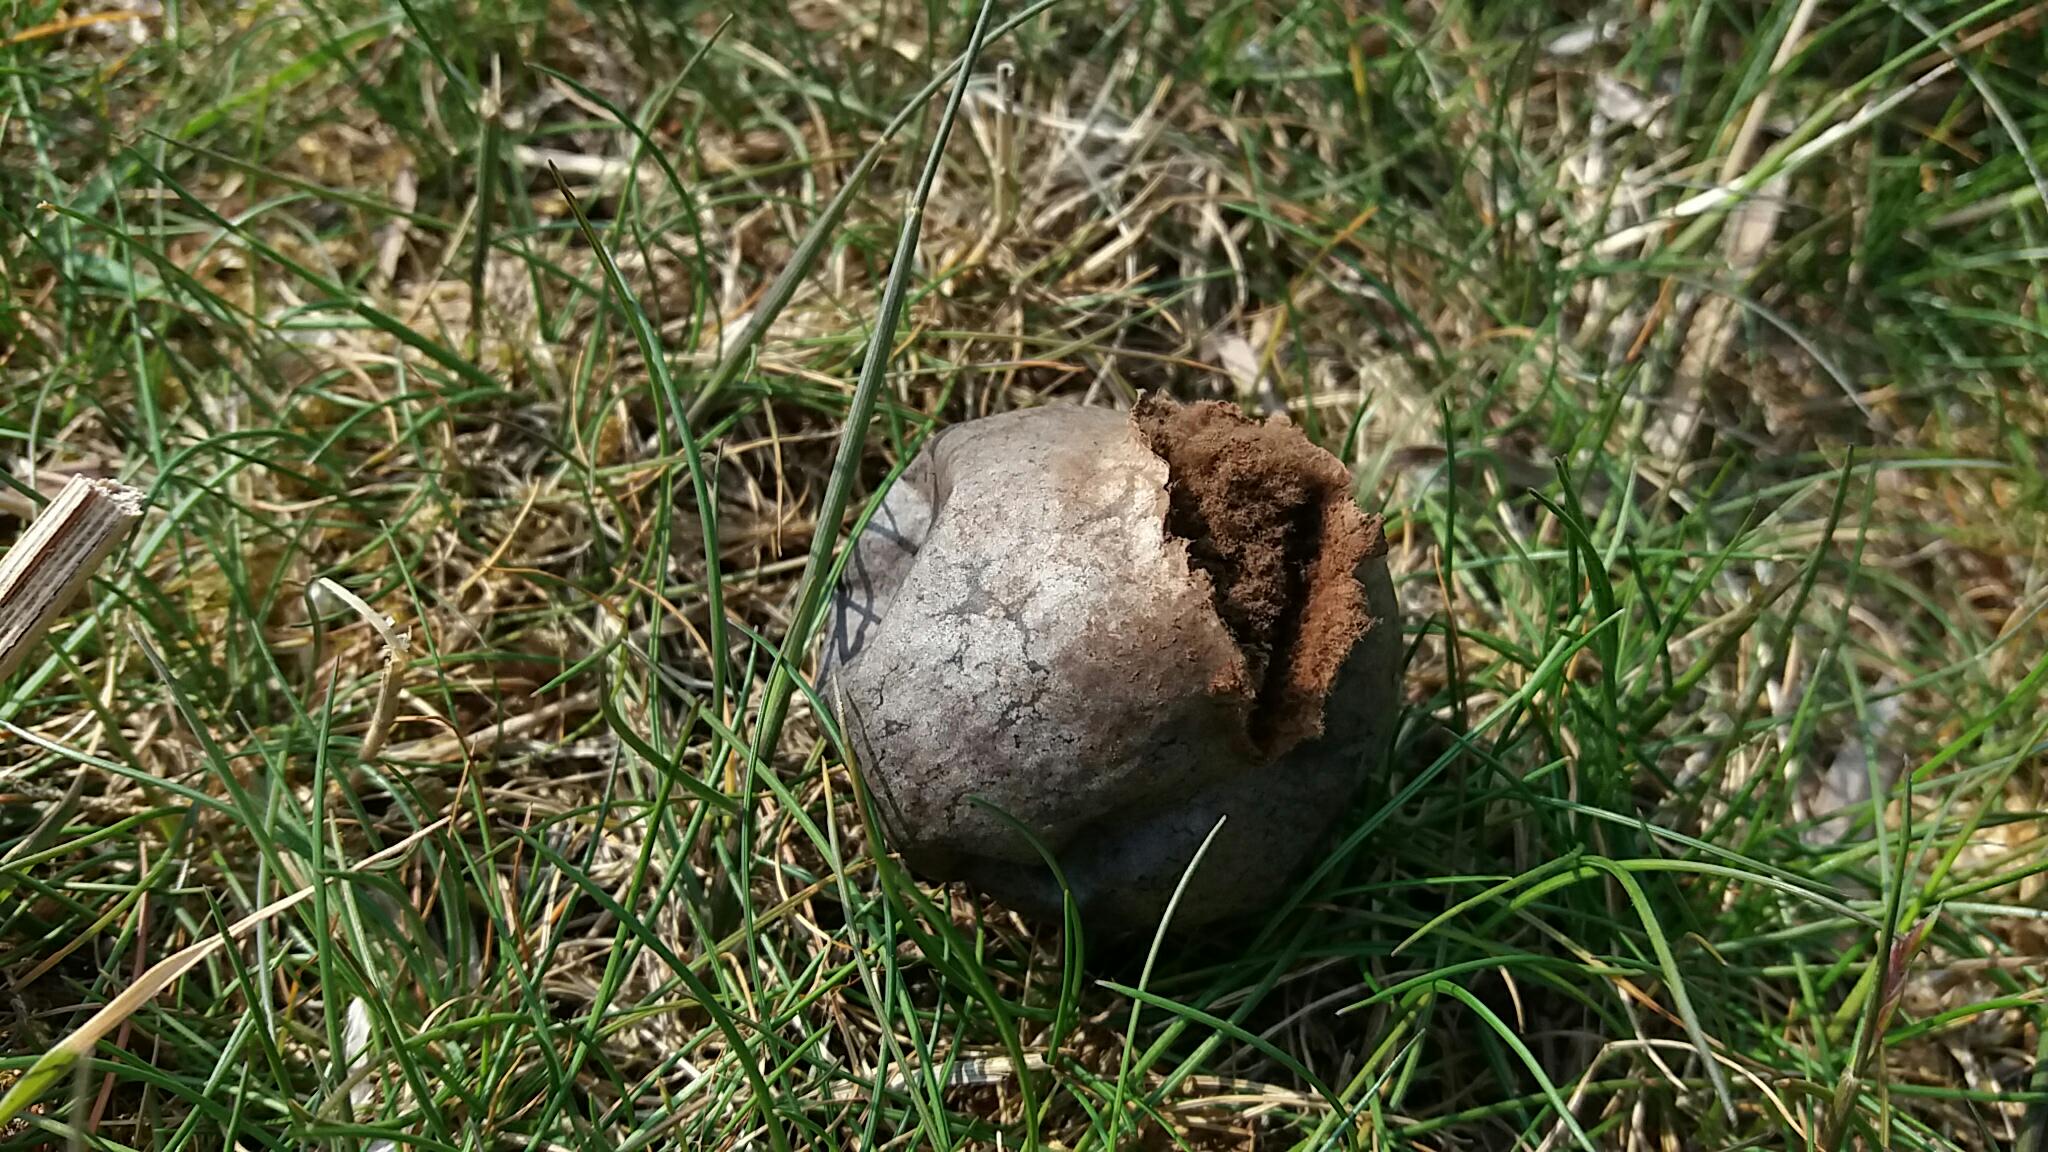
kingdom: Fungi
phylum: Basidiomycota
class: Agaricomycetes
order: Agaricales
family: Lycoperdaceae
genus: Bovista
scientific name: Bovista plumbea
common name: blygrå bovist
